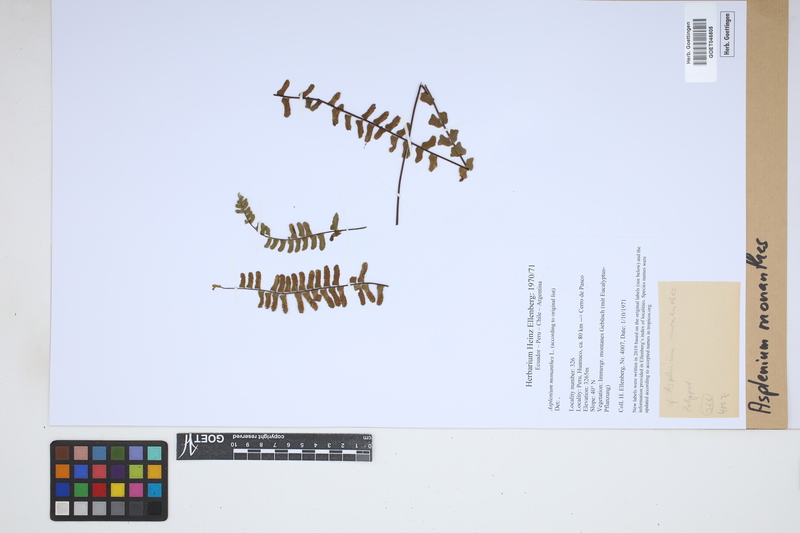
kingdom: Plantae
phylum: Tracheophyta
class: Polypodiopsida
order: Polypodiales
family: Aspleniaceae
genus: Asplenium
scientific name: Asplenium monanthes
